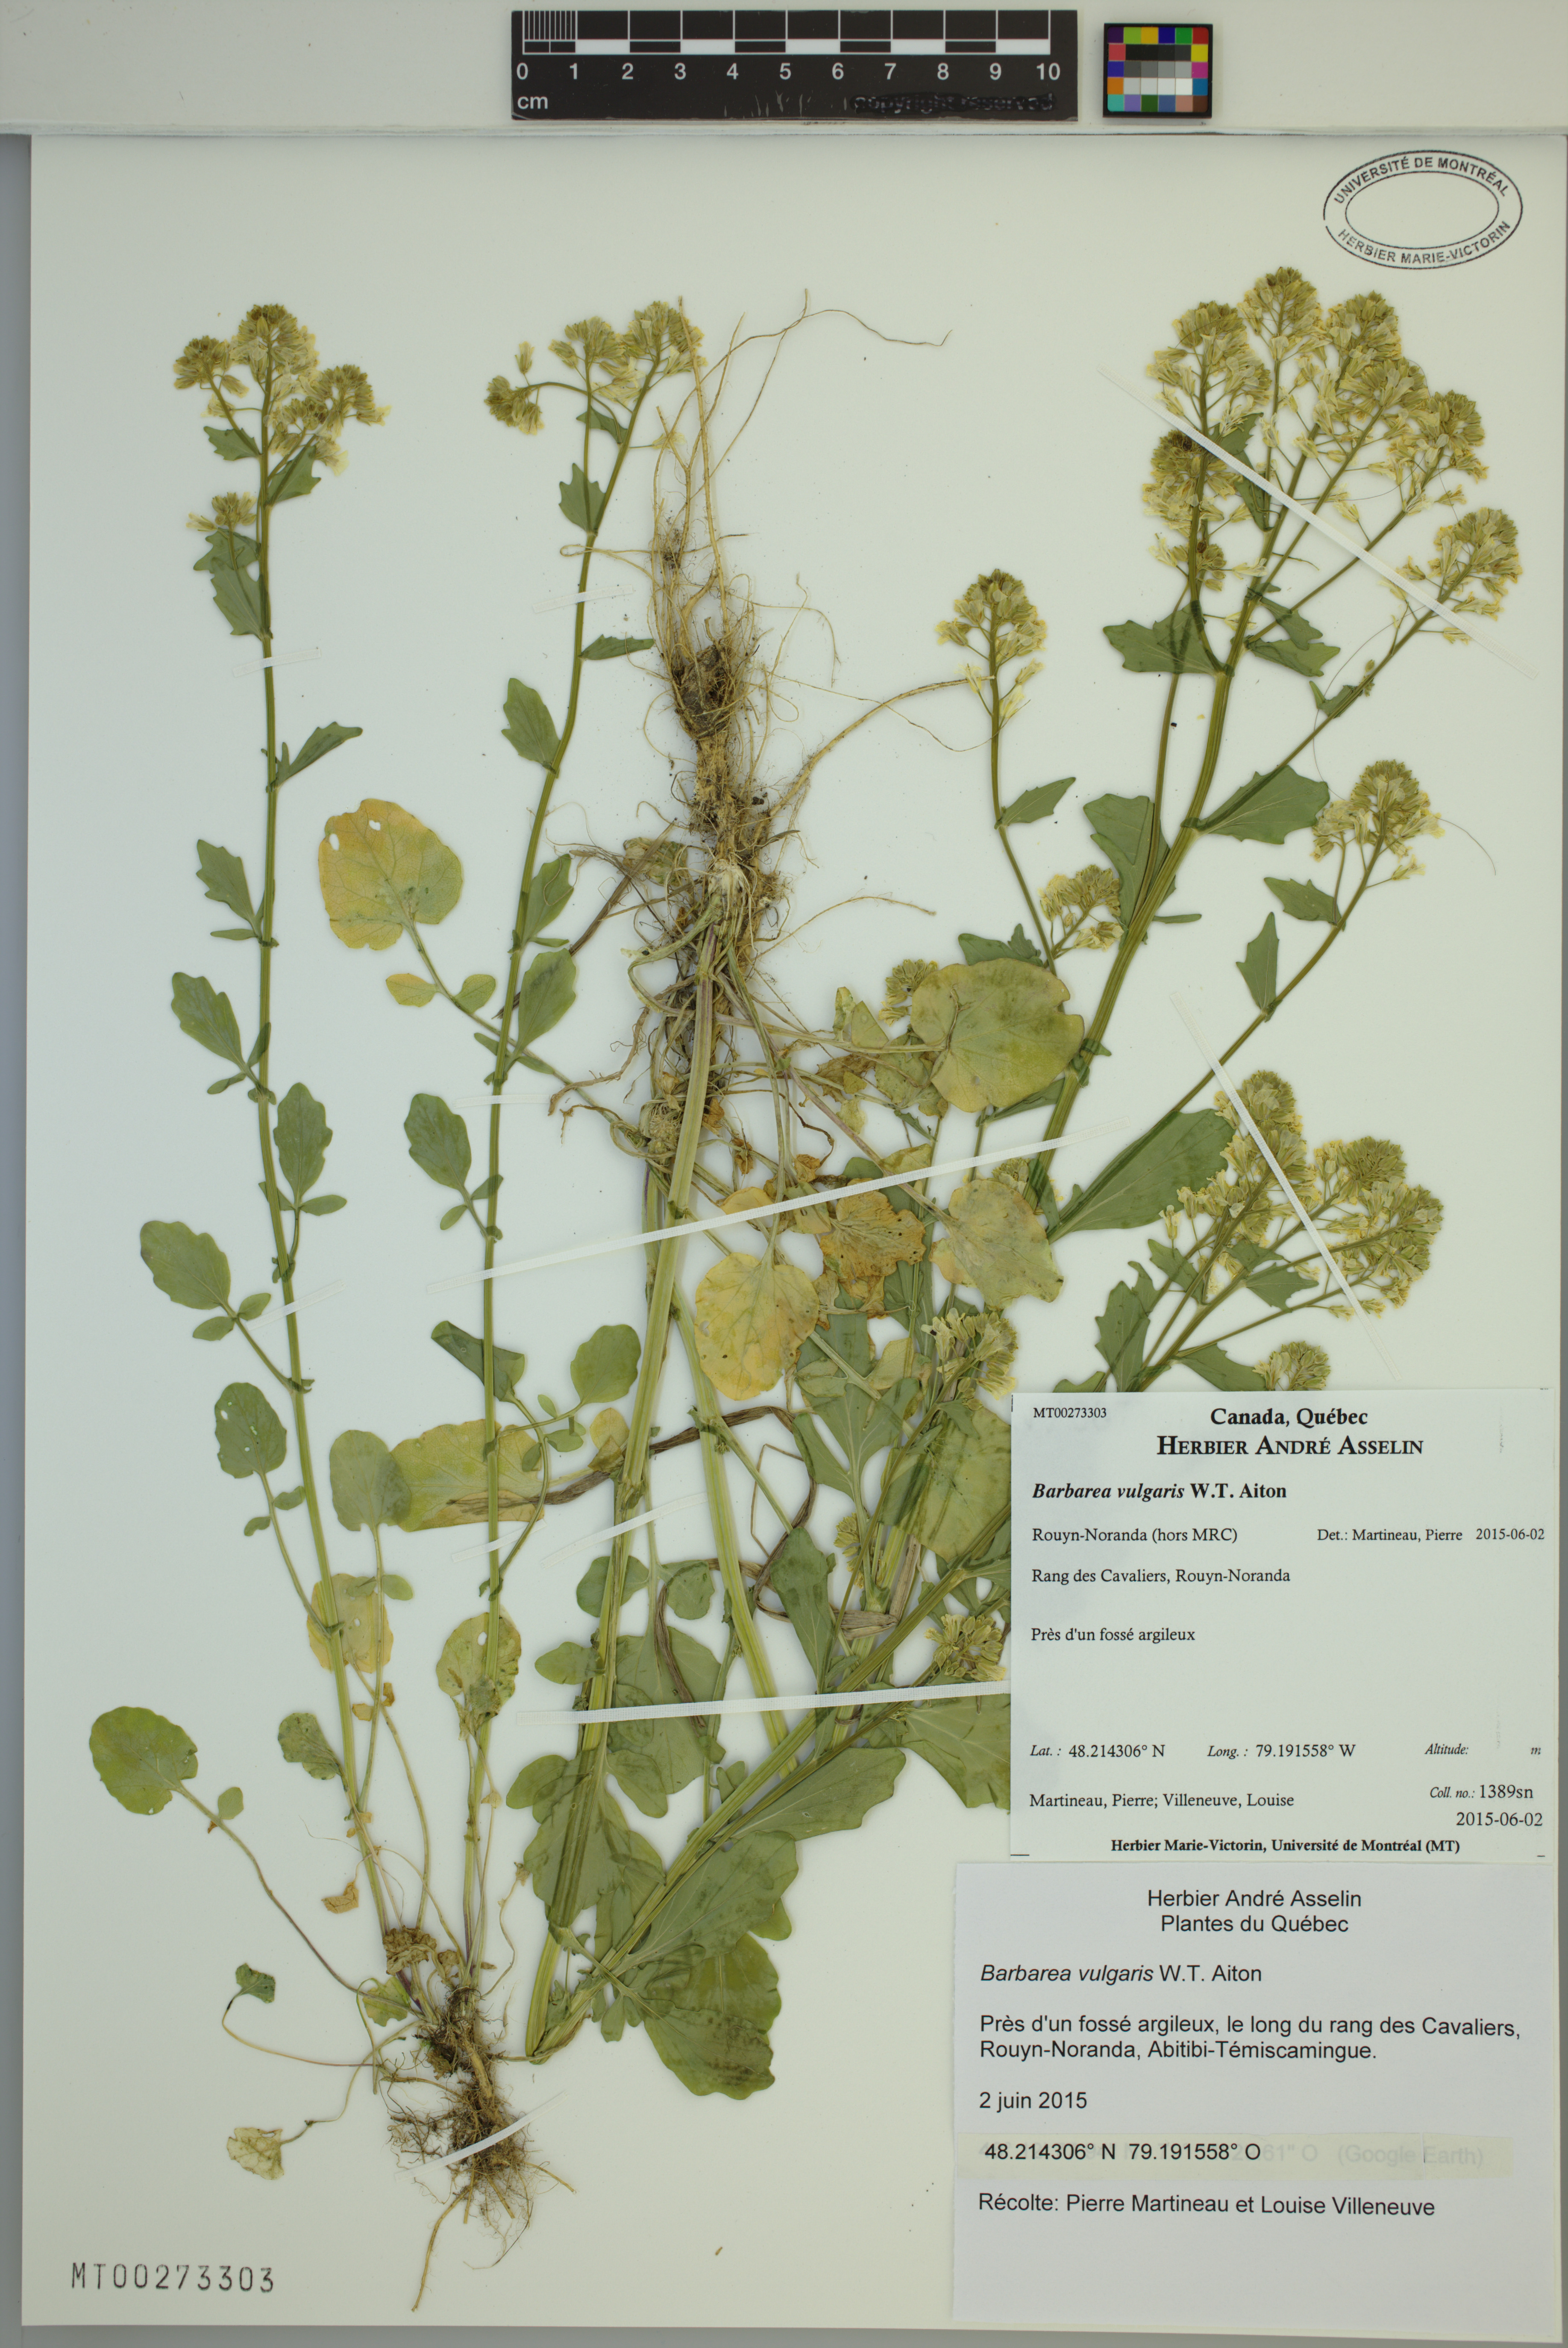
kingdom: Plantae
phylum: Tracheophyta
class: Magnoliopsida
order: Brassicales
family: Brassicaceae
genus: Barbarea
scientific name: Barbarea vulgaris
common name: Cressy-greens
